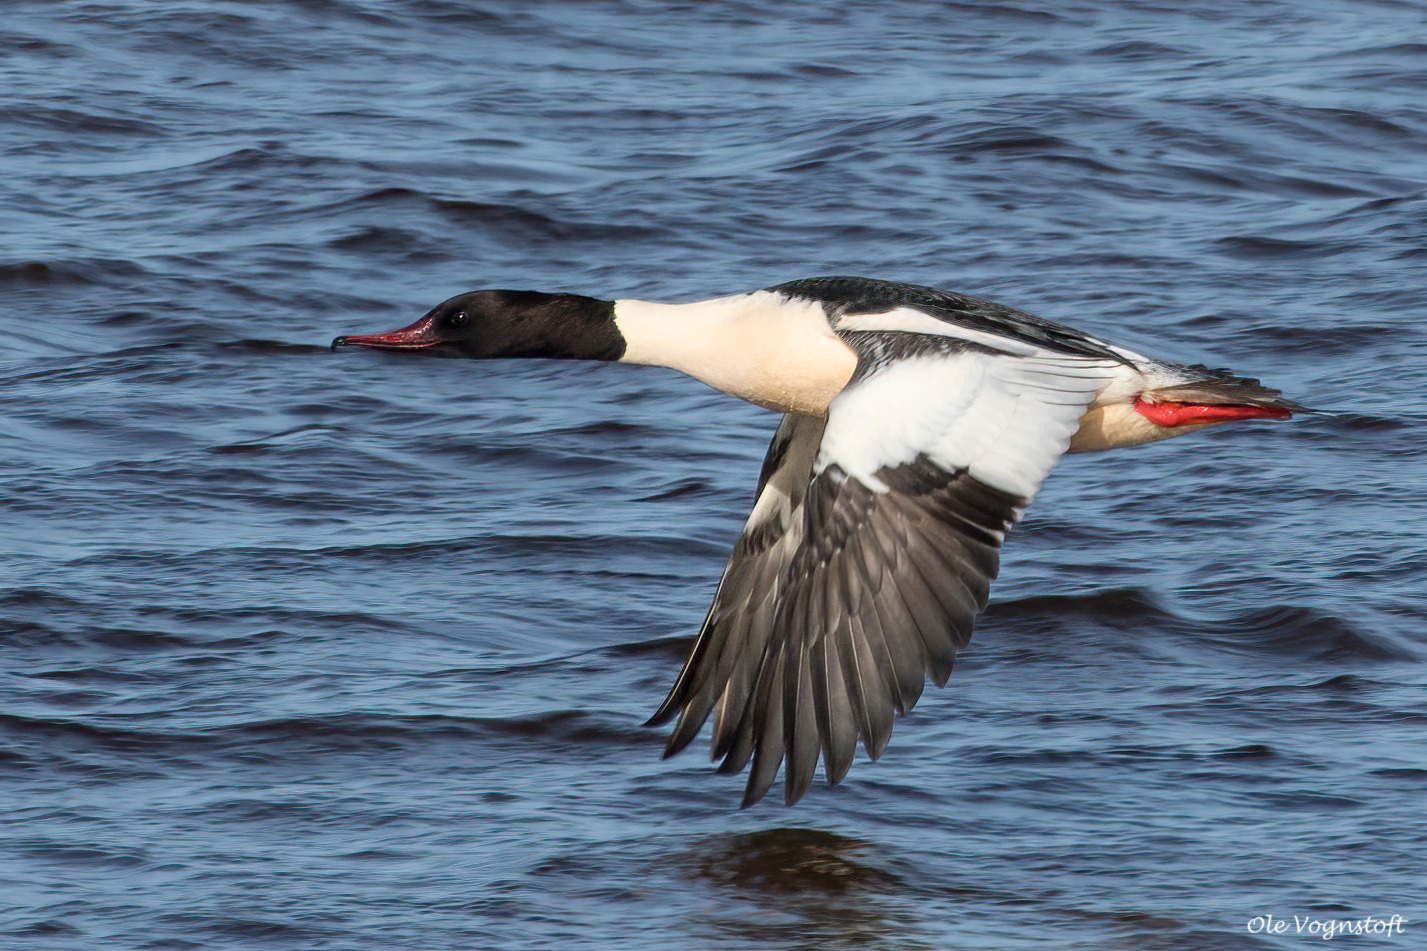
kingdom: Animalia
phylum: Chordata
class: Aves
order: Anseriformes
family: Anatidae
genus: Mergus
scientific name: Mergus merganser
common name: Stor skallesluger
